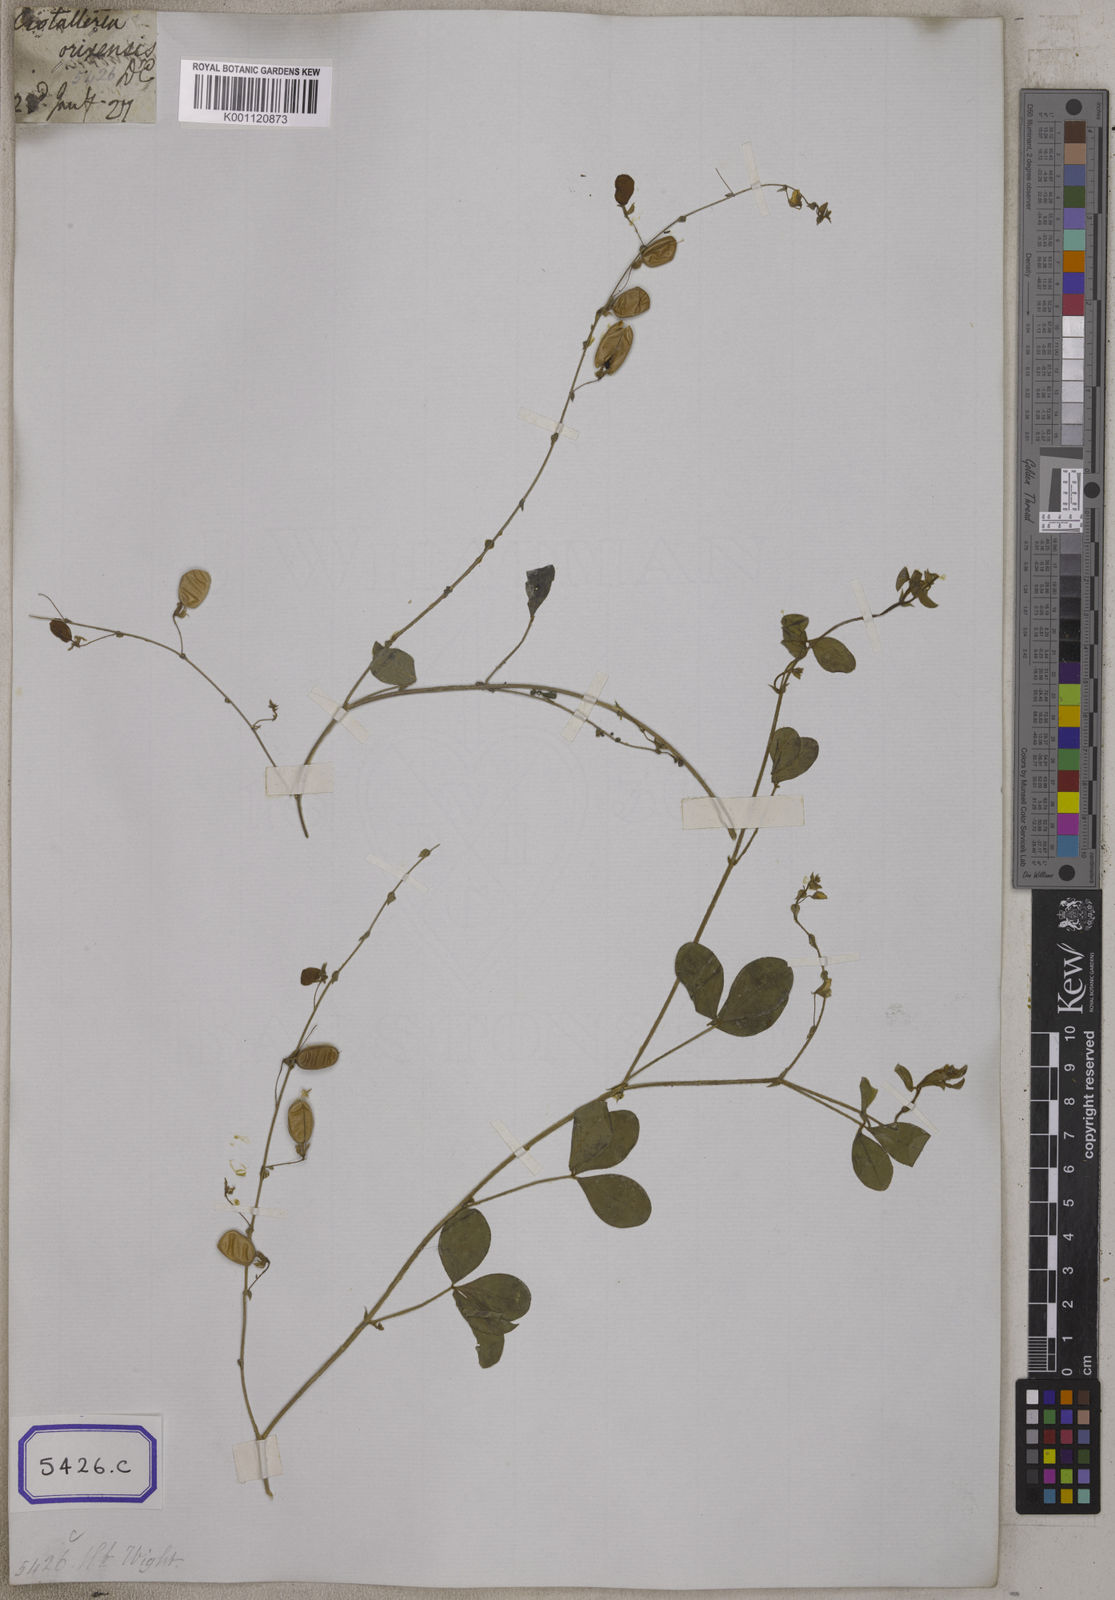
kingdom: Plantae
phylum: Tracheophyta
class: Magnoliopsida
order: Fabales
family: Fabaceae
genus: Crotalaria
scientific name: Crotalaria orixensis
